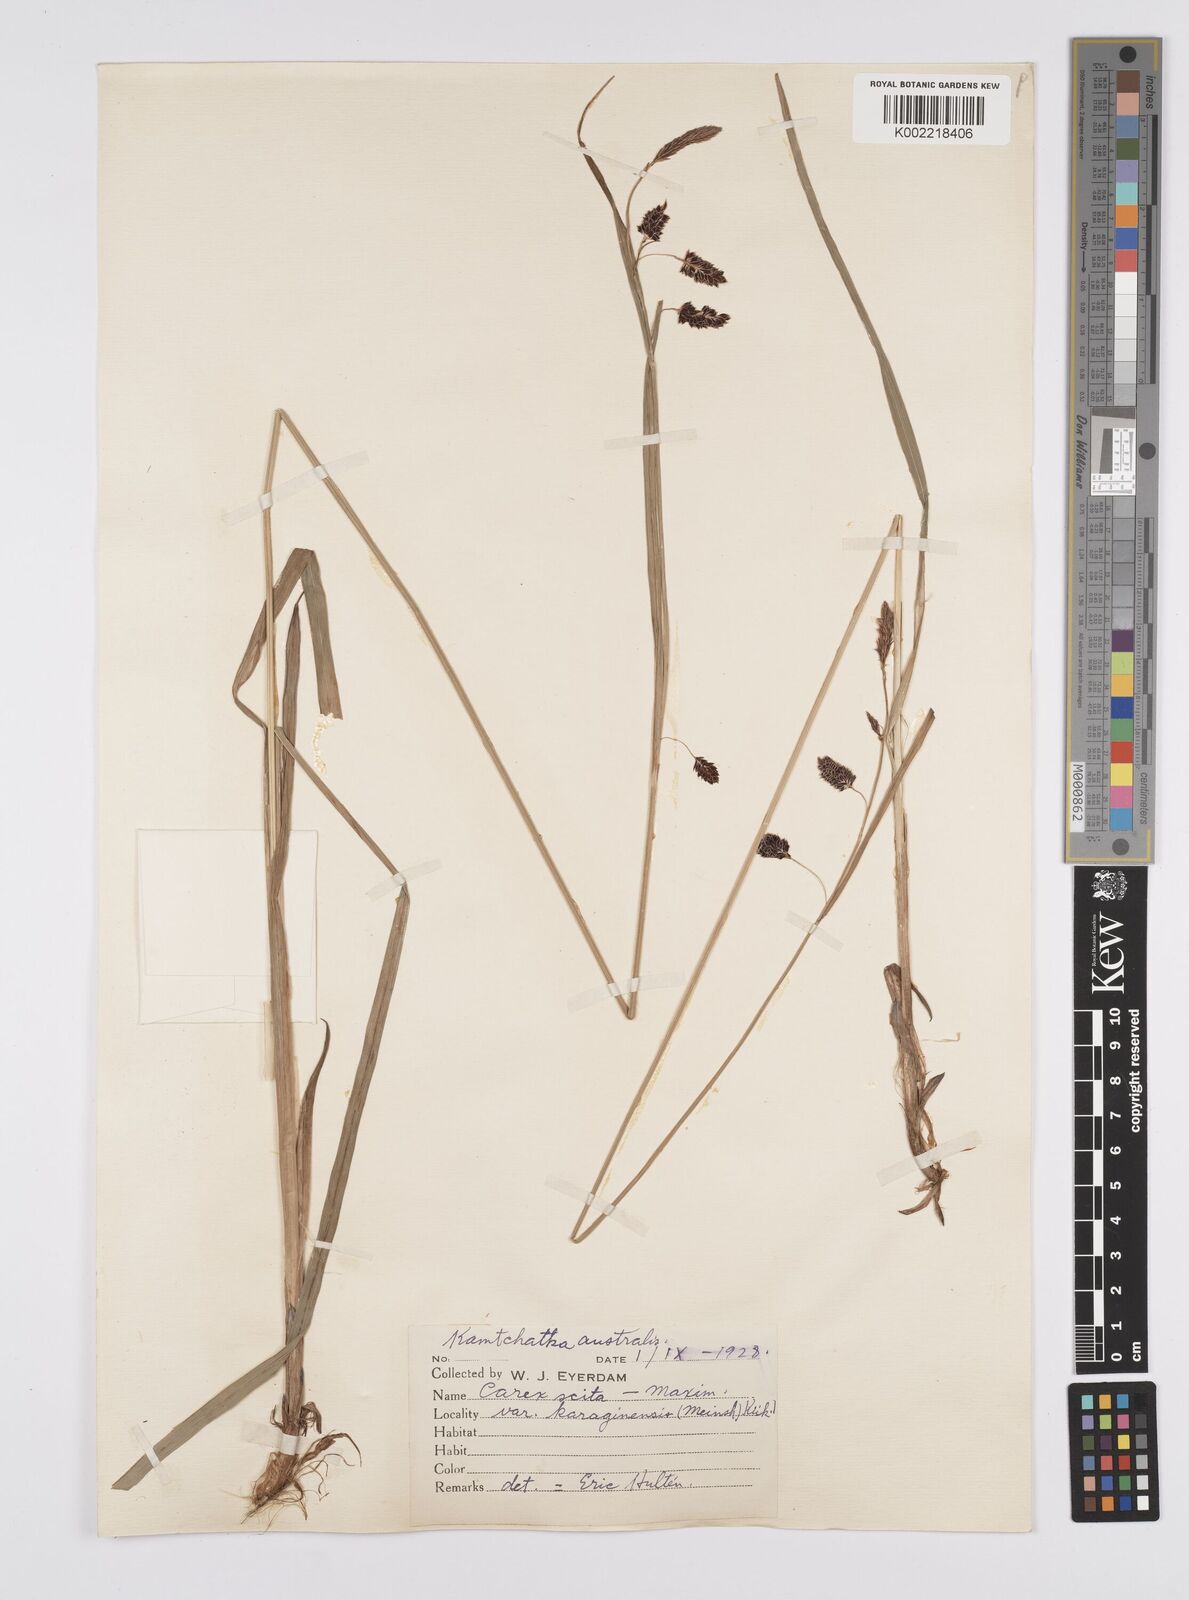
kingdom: Plantae
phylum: Tracheophyta
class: Liliopsida
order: Poales
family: Cyperaceae
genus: Carex
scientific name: Carex scita
